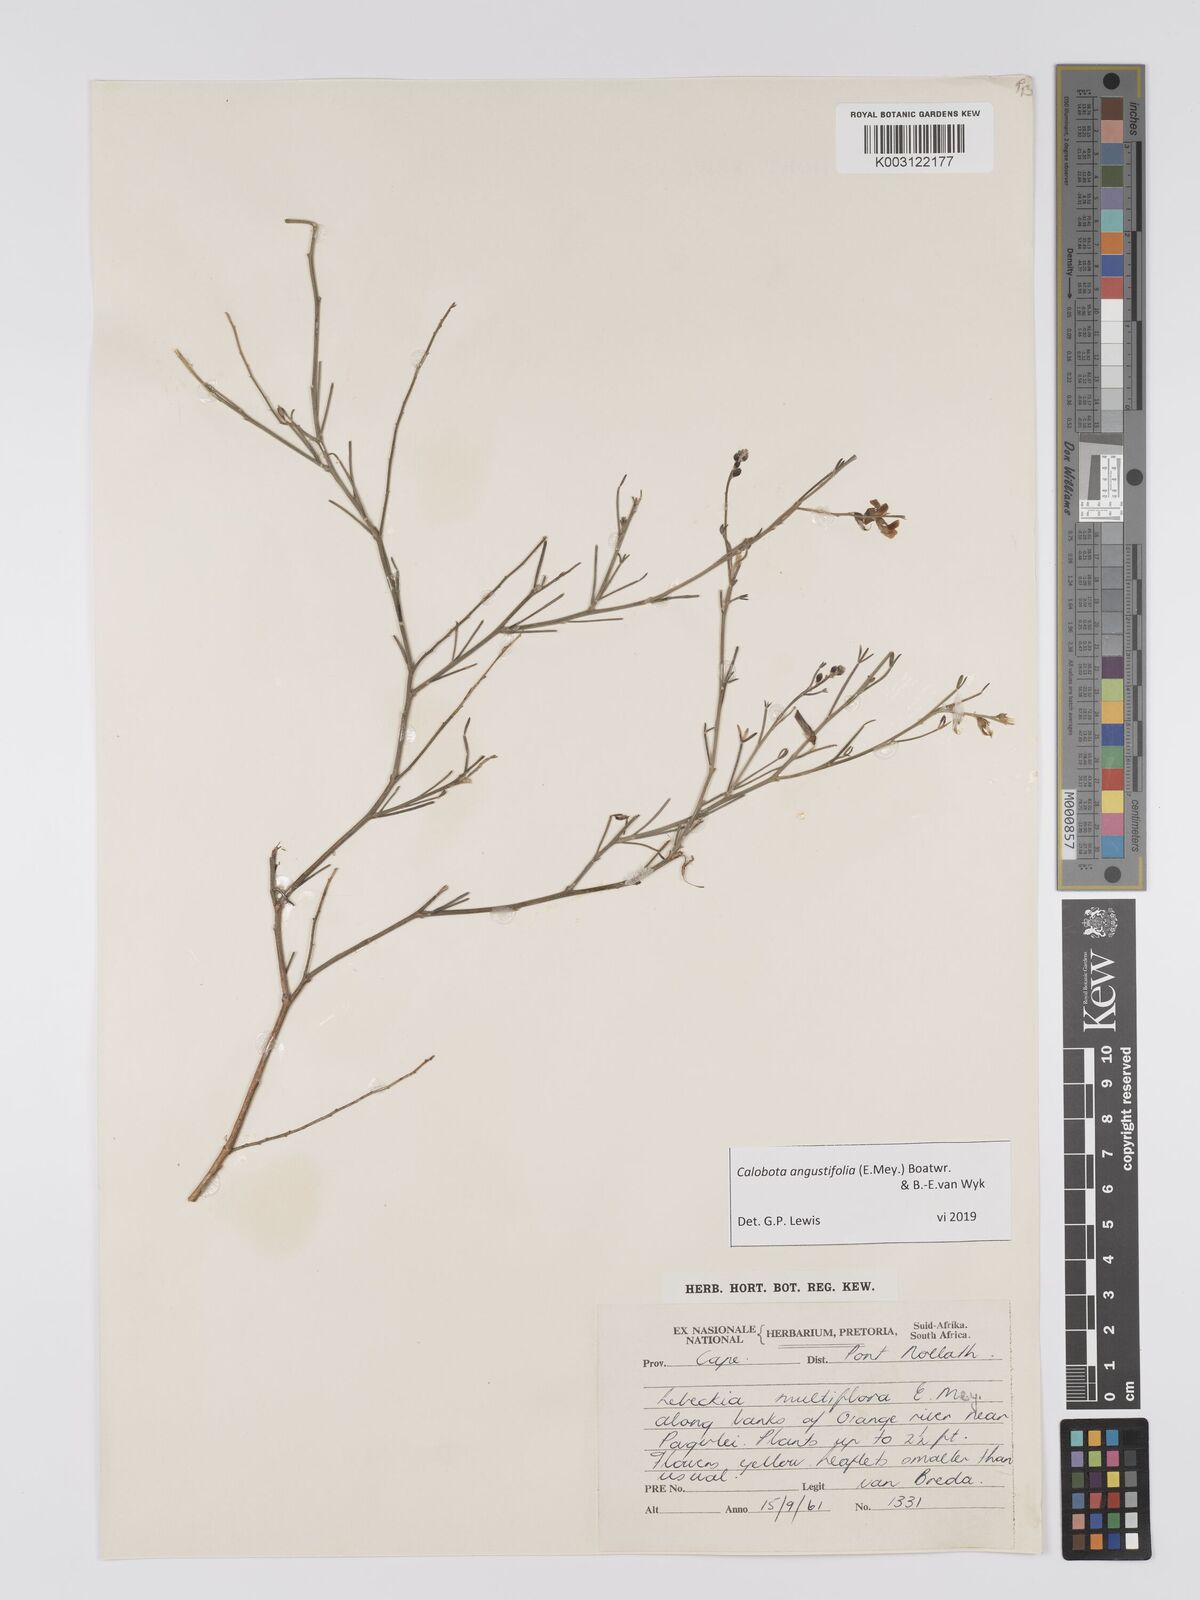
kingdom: Plantae
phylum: Tracheophyta
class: Magnoliopsida
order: Fabales
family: Fabaceae
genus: Calobota
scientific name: Calobota angustifolia
